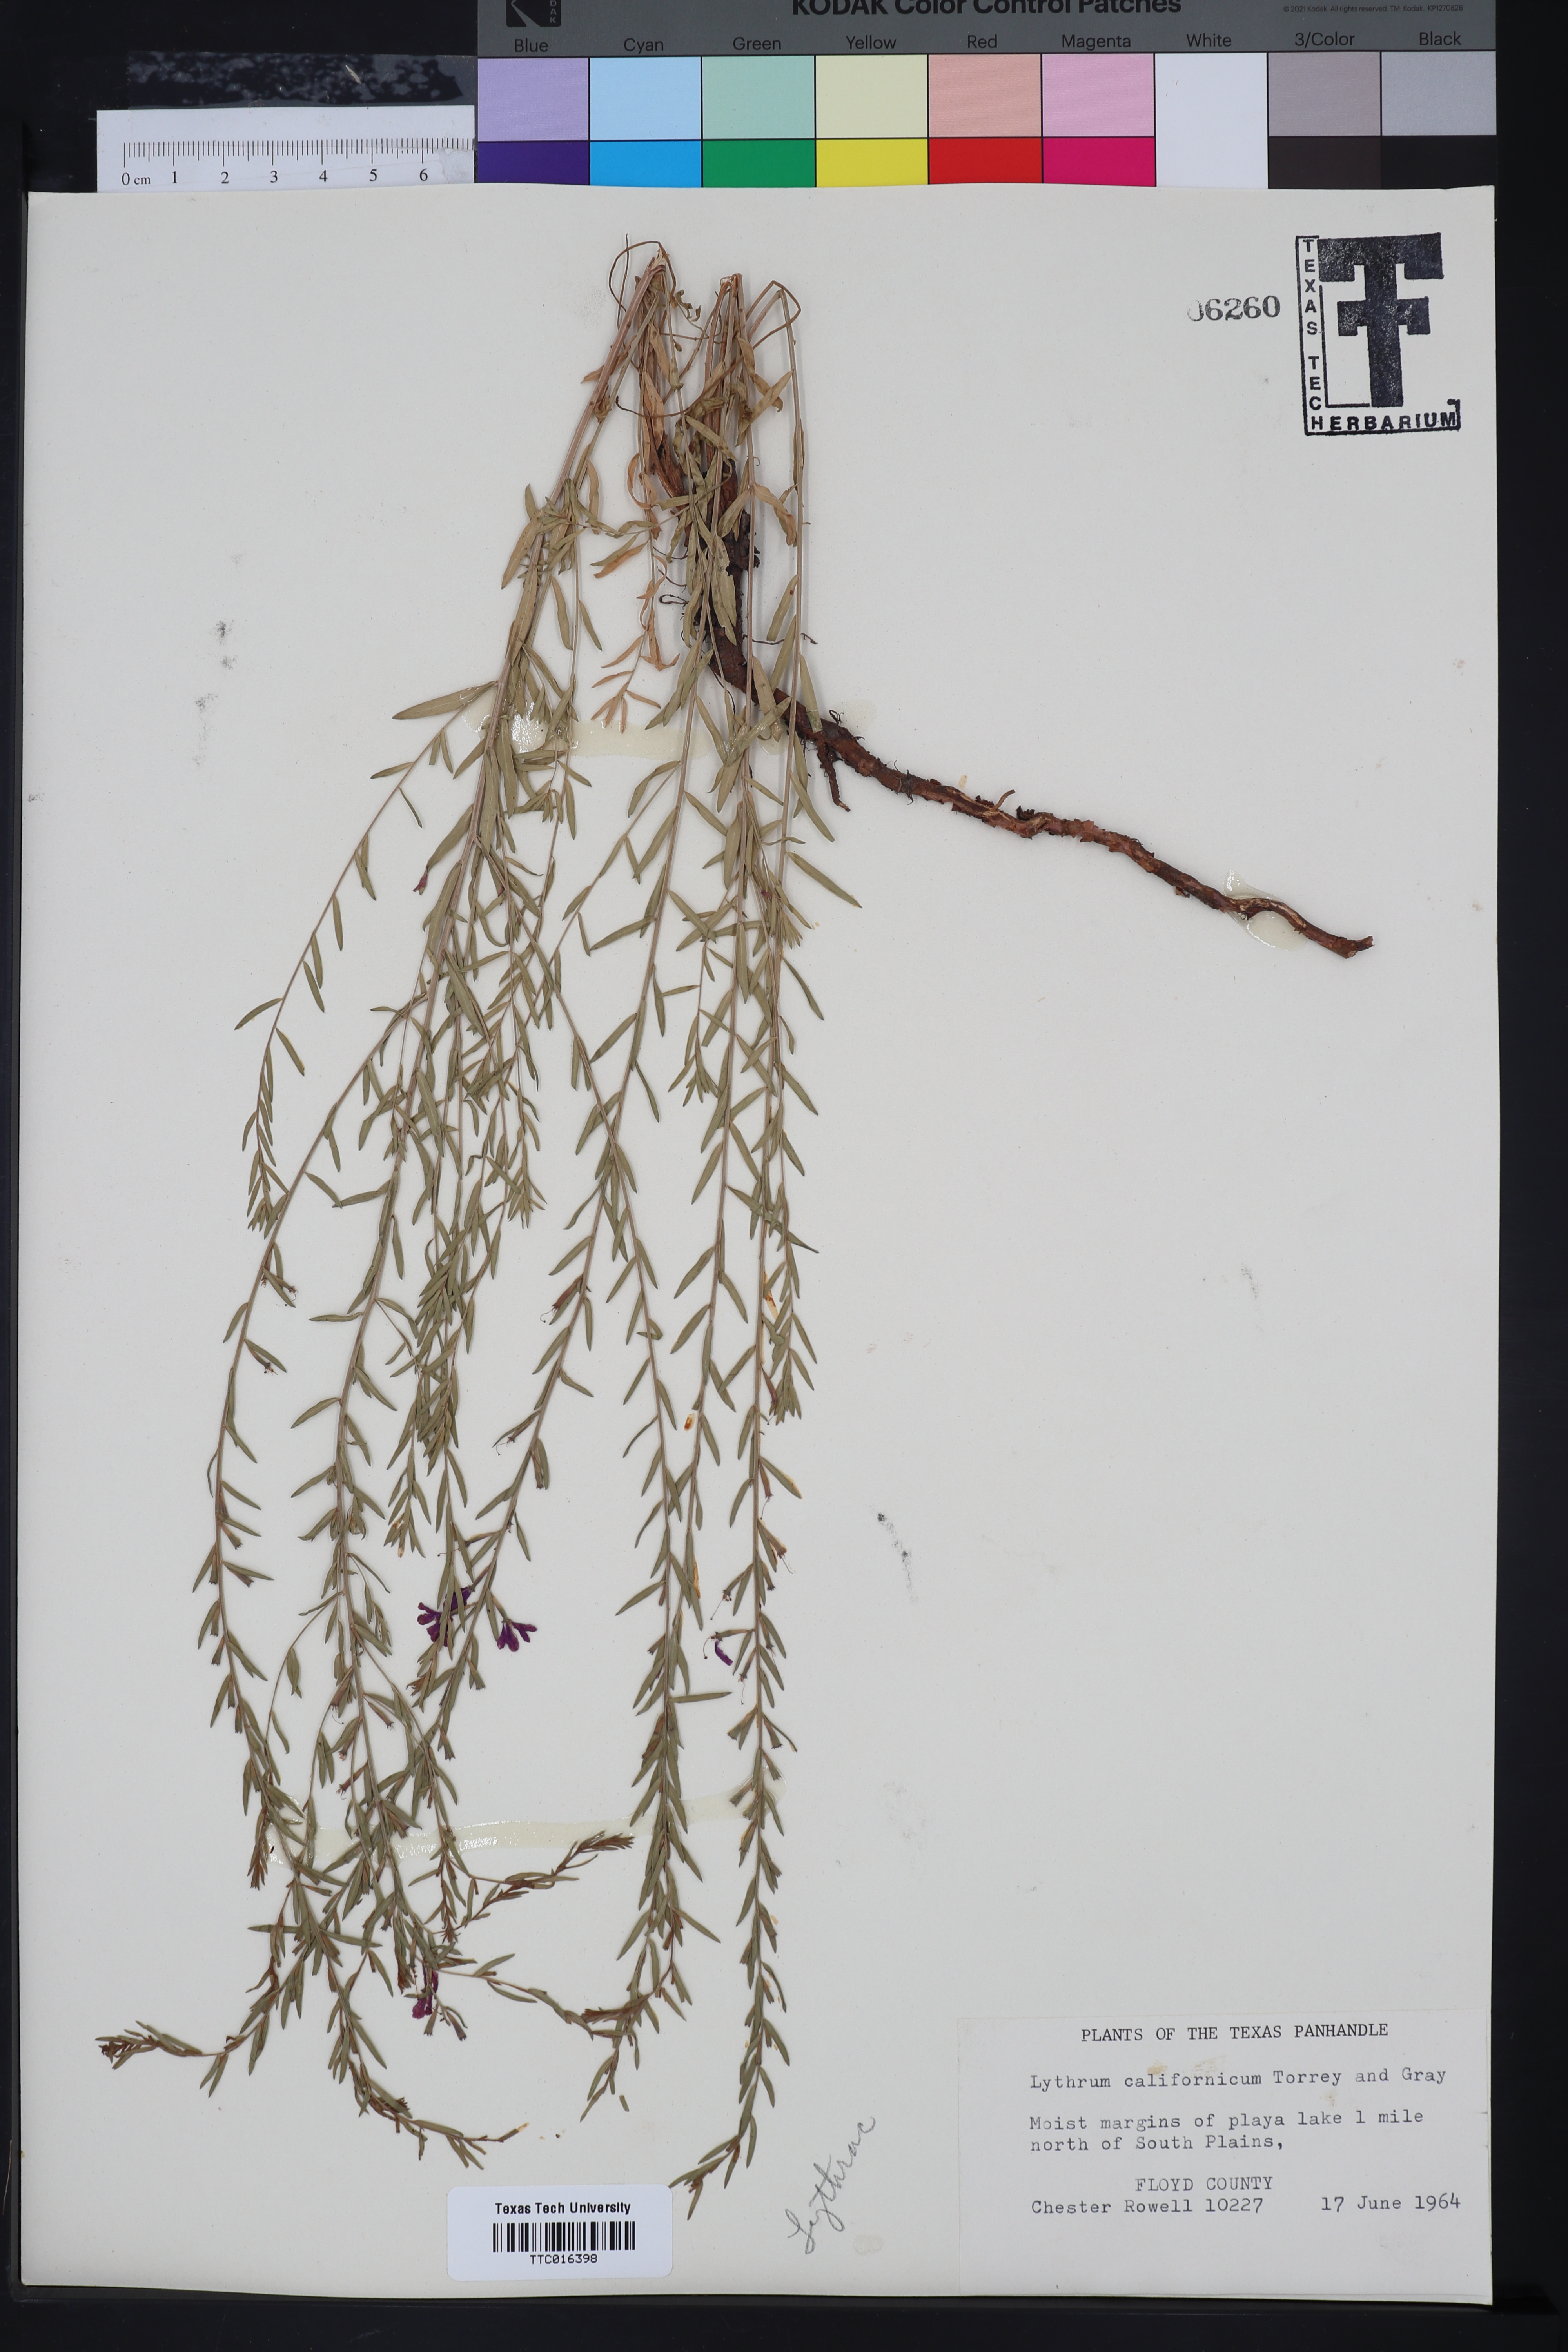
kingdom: Plantae
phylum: Tracheophyta
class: Magnoliopsida
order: Myrtales
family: Lythraceae
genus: Lythrum
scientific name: Lythrum californicum
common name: California loosestrife
